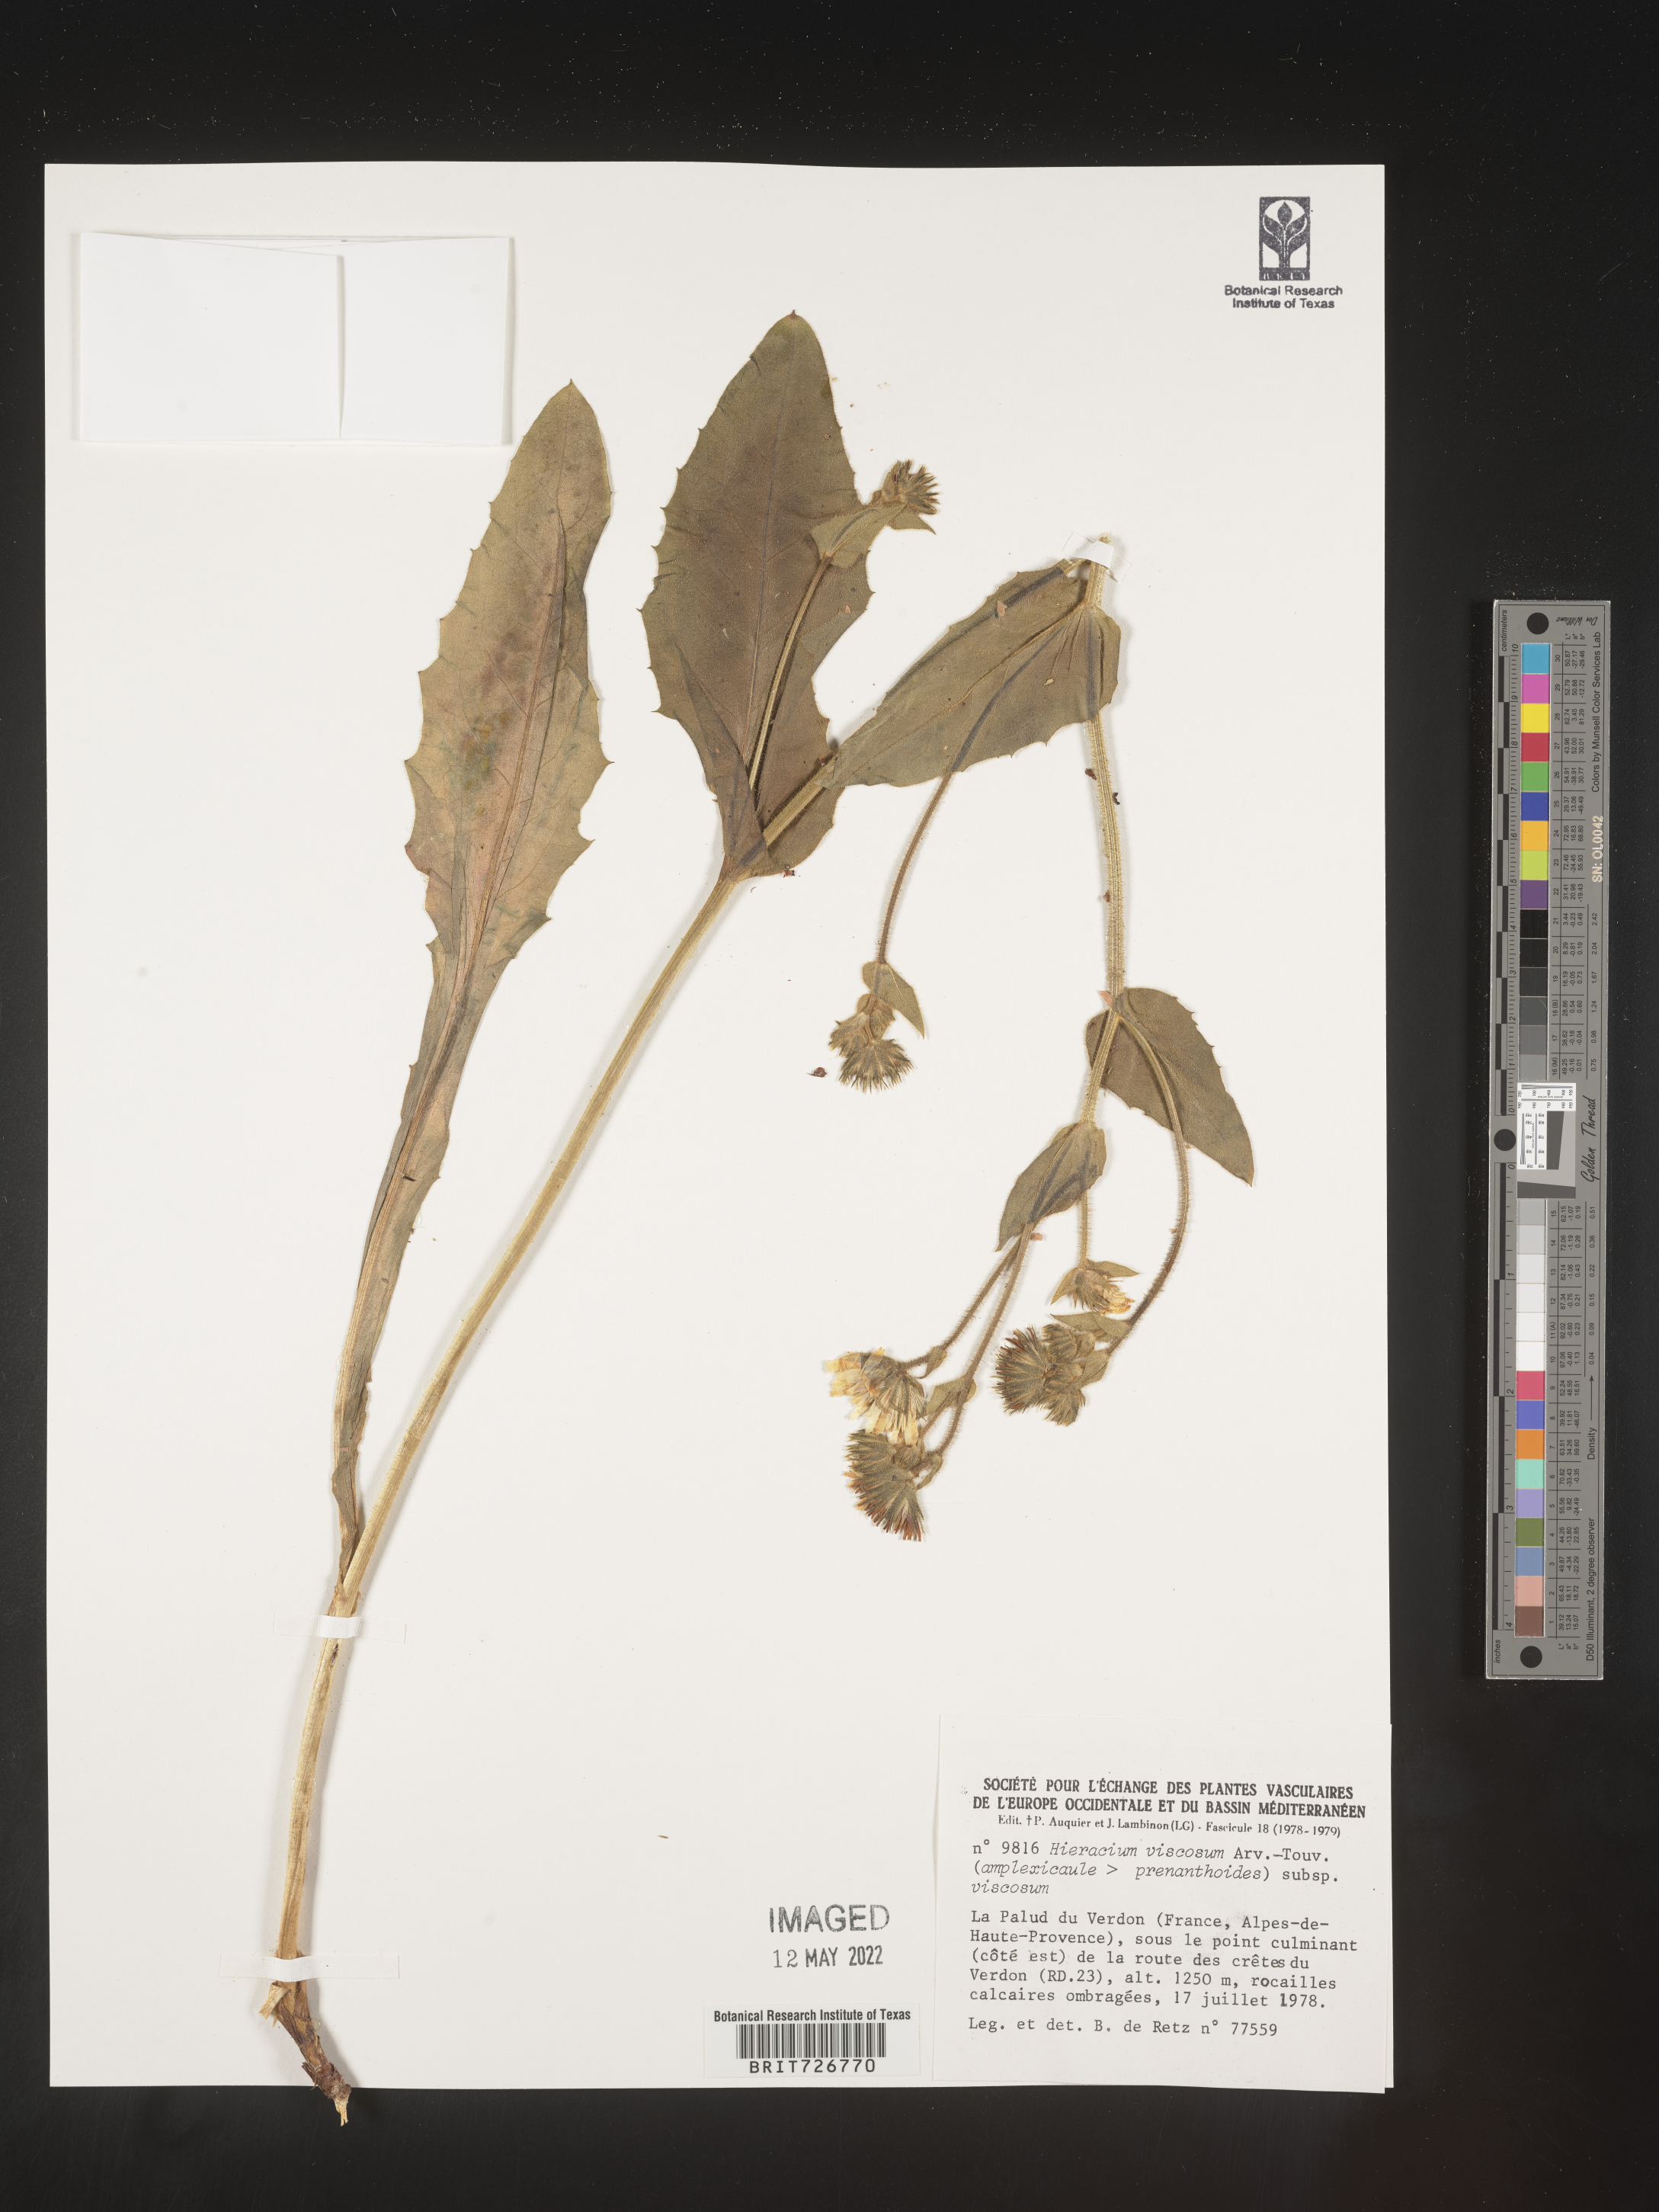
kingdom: Plantae
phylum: Tracheophyta
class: Magnoliopsida
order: Asterales
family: Asteraceae
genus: Hieracium
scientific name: Hieracium
